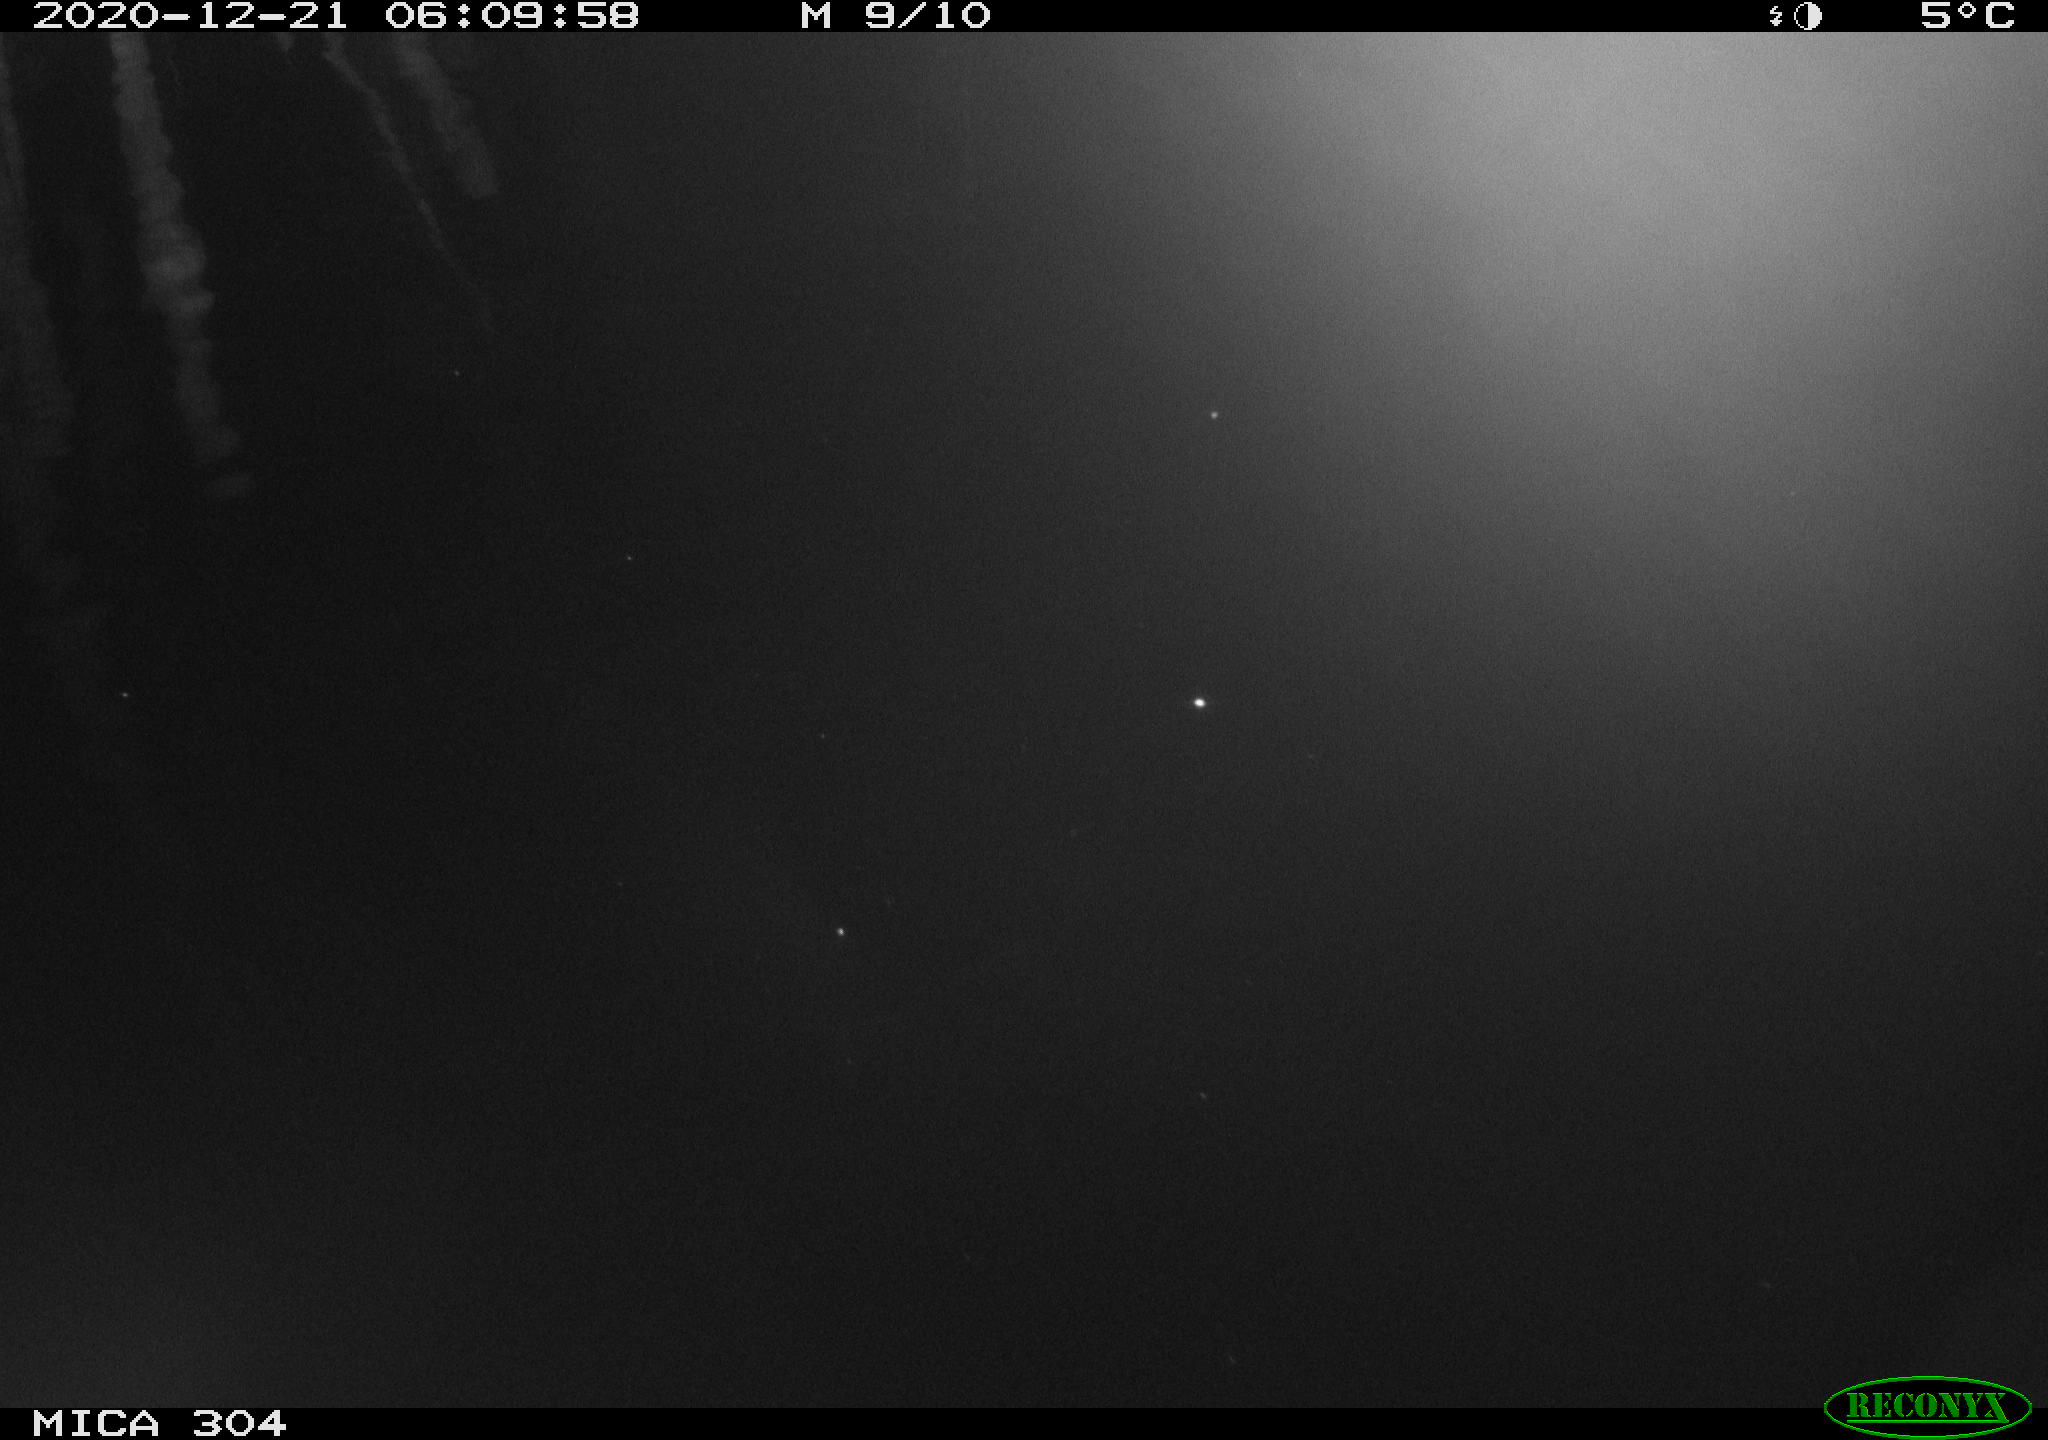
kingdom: Animalia
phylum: Chordata
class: Mammalia
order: Rodentia
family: Muridae
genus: Rattus
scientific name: Rattus norvegicus
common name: Brown rat
